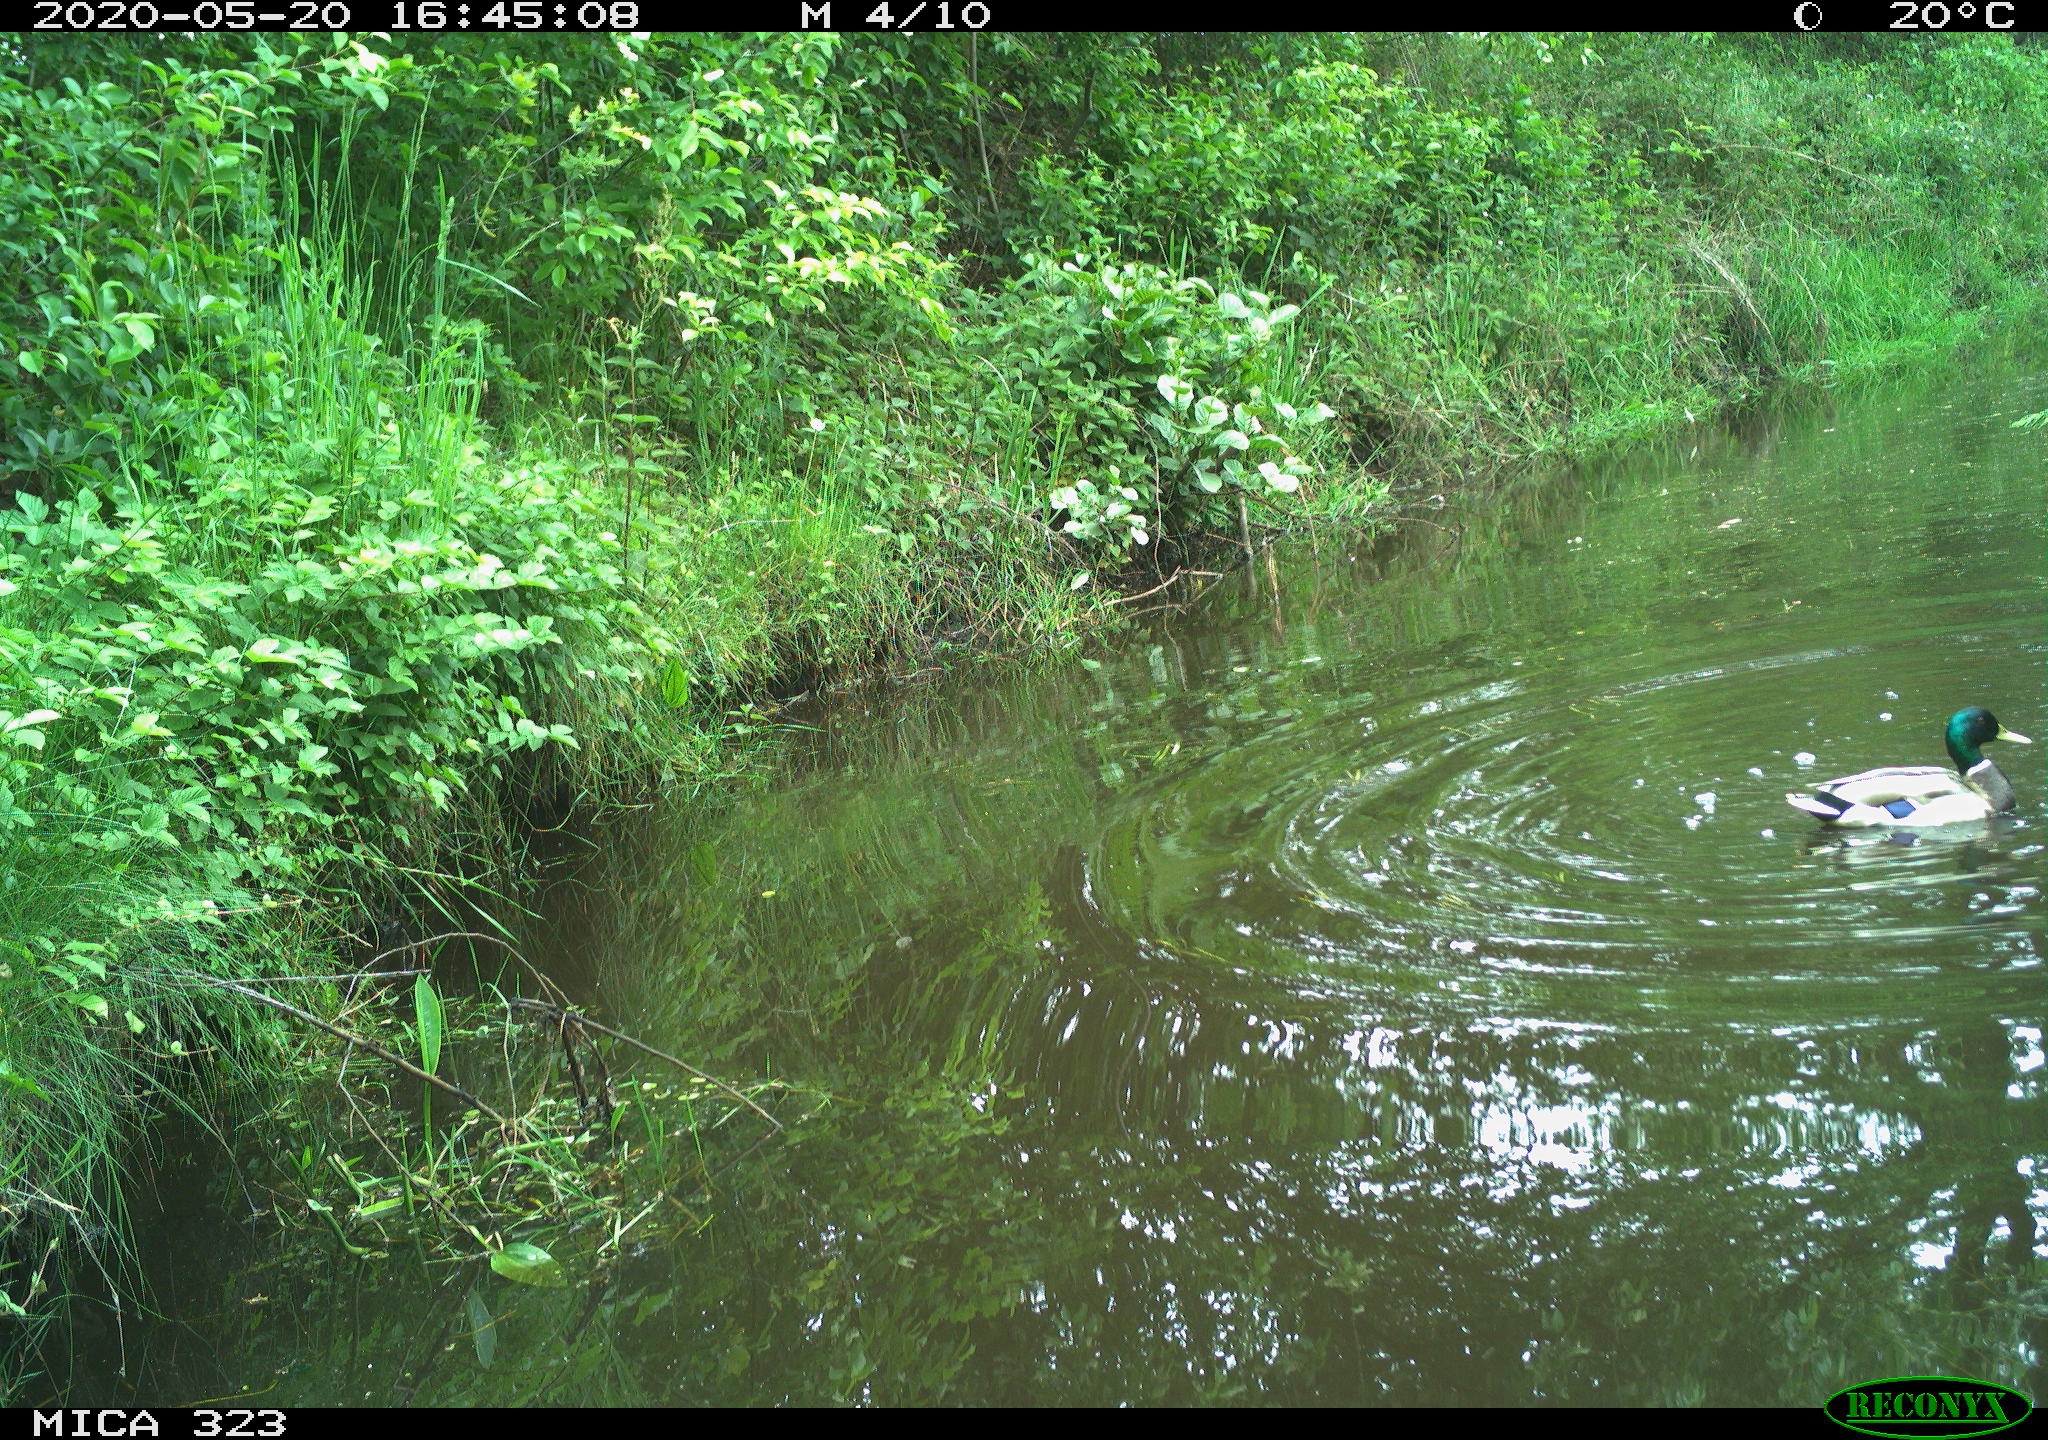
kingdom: Animalia
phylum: Chordata
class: Aves
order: Anseriformes
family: Anatidae
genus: Anas
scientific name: Anas platyrhynchos
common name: Mallard
